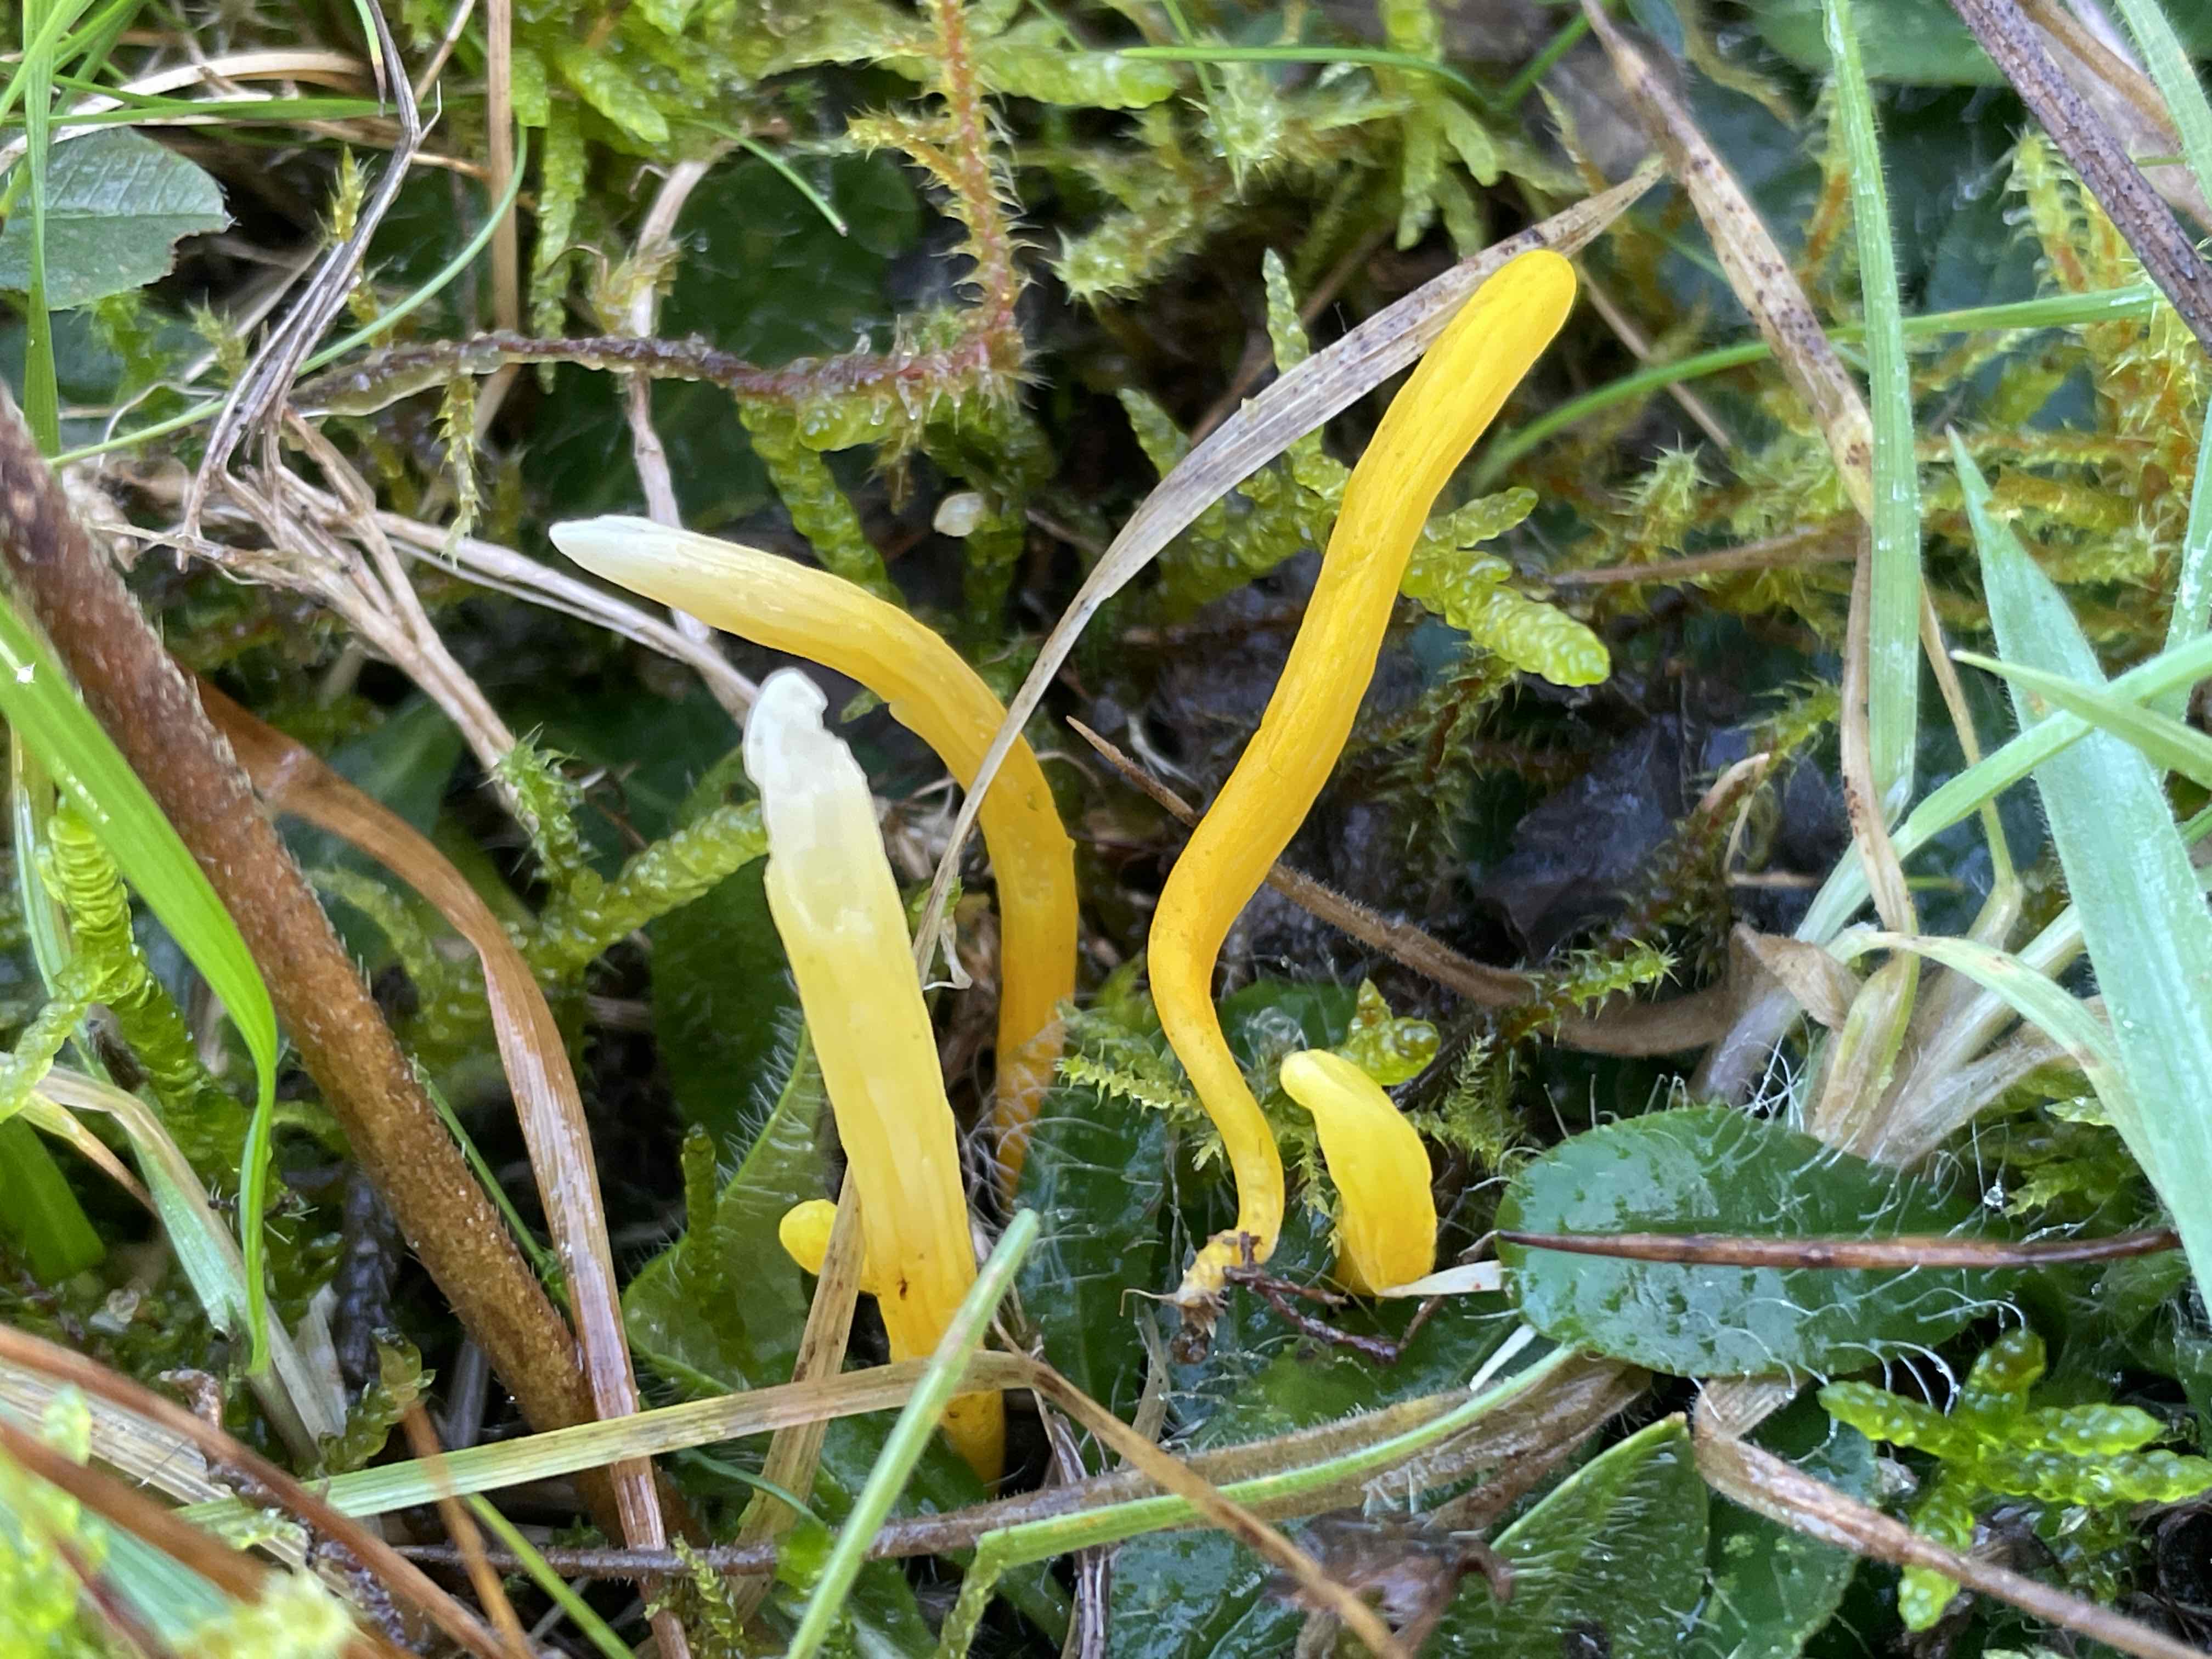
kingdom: Fungi
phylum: Basidiomycota
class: Agaricomycetes
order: Agaricales
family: Clavariaceae
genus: Clavulinopsis
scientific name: Clavulinopsis
